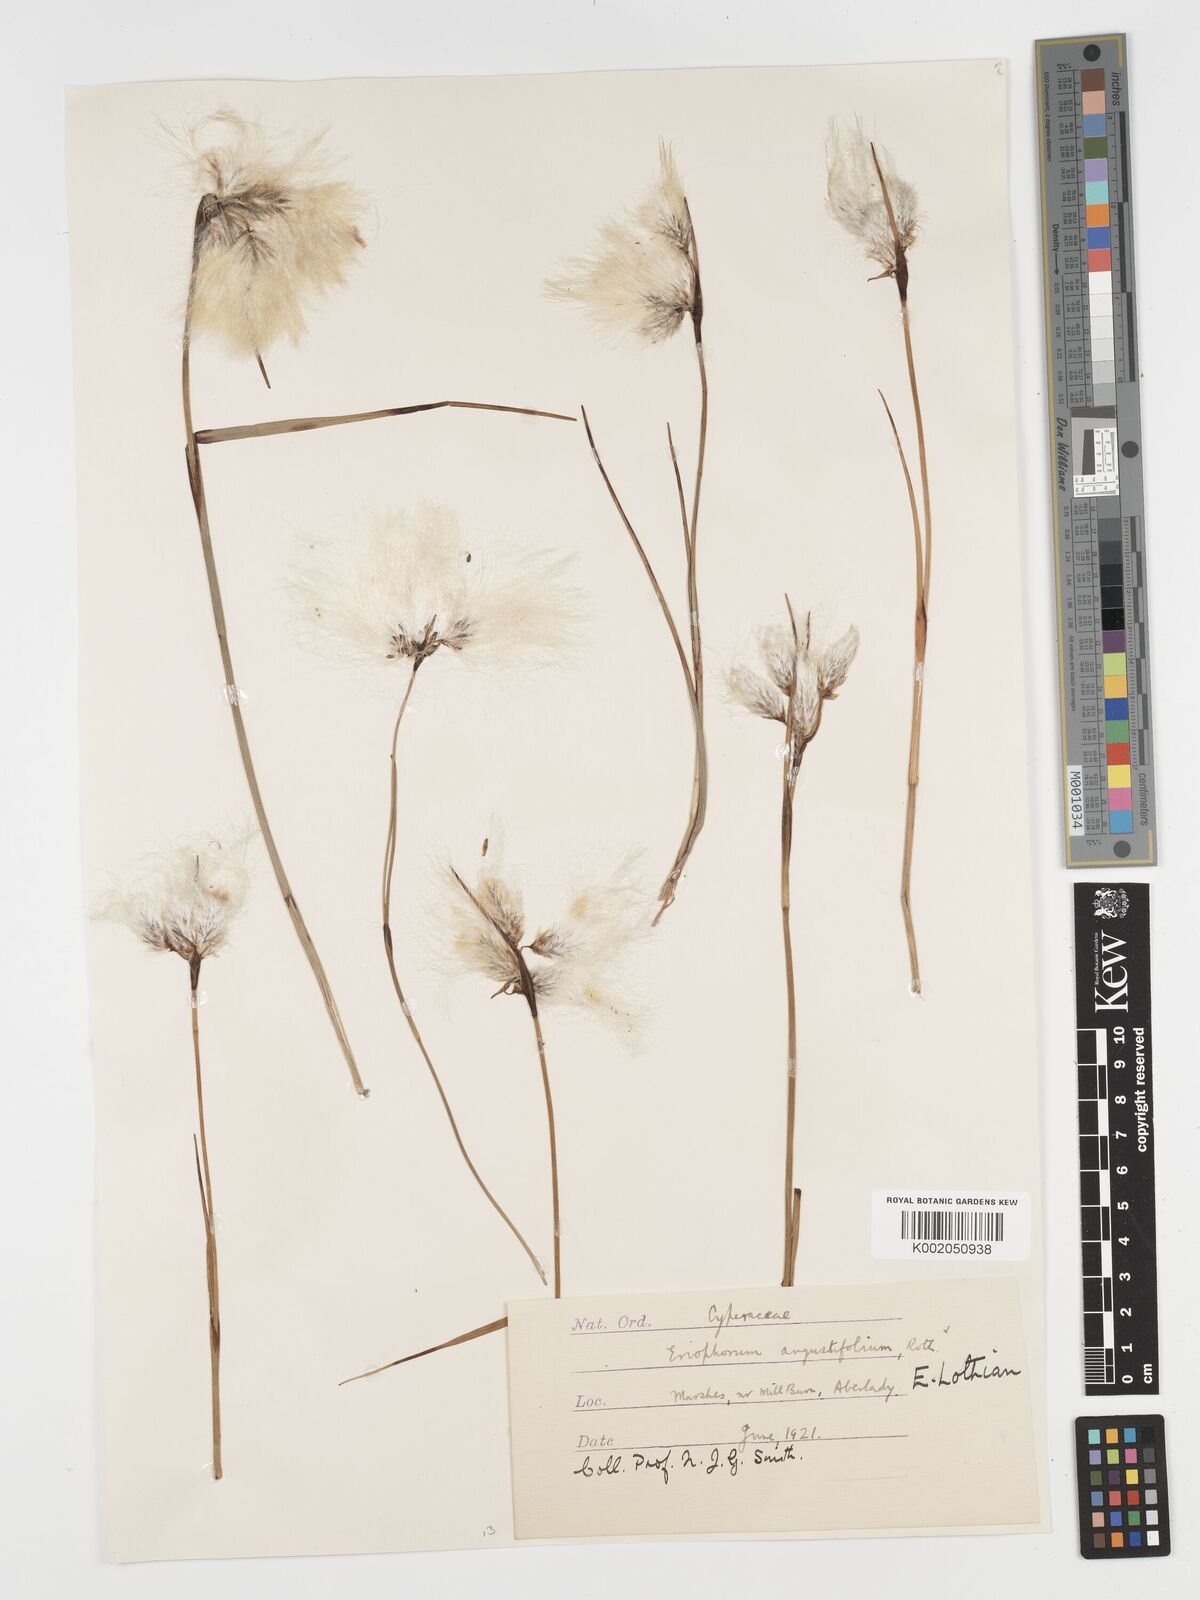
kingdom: Plantae
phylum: Tracheophyta
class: Liliopsida
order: Poales
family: Cyperaceae
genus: Eriophorum
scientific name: Eriophorum angustifolium
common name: Common cottongrass
